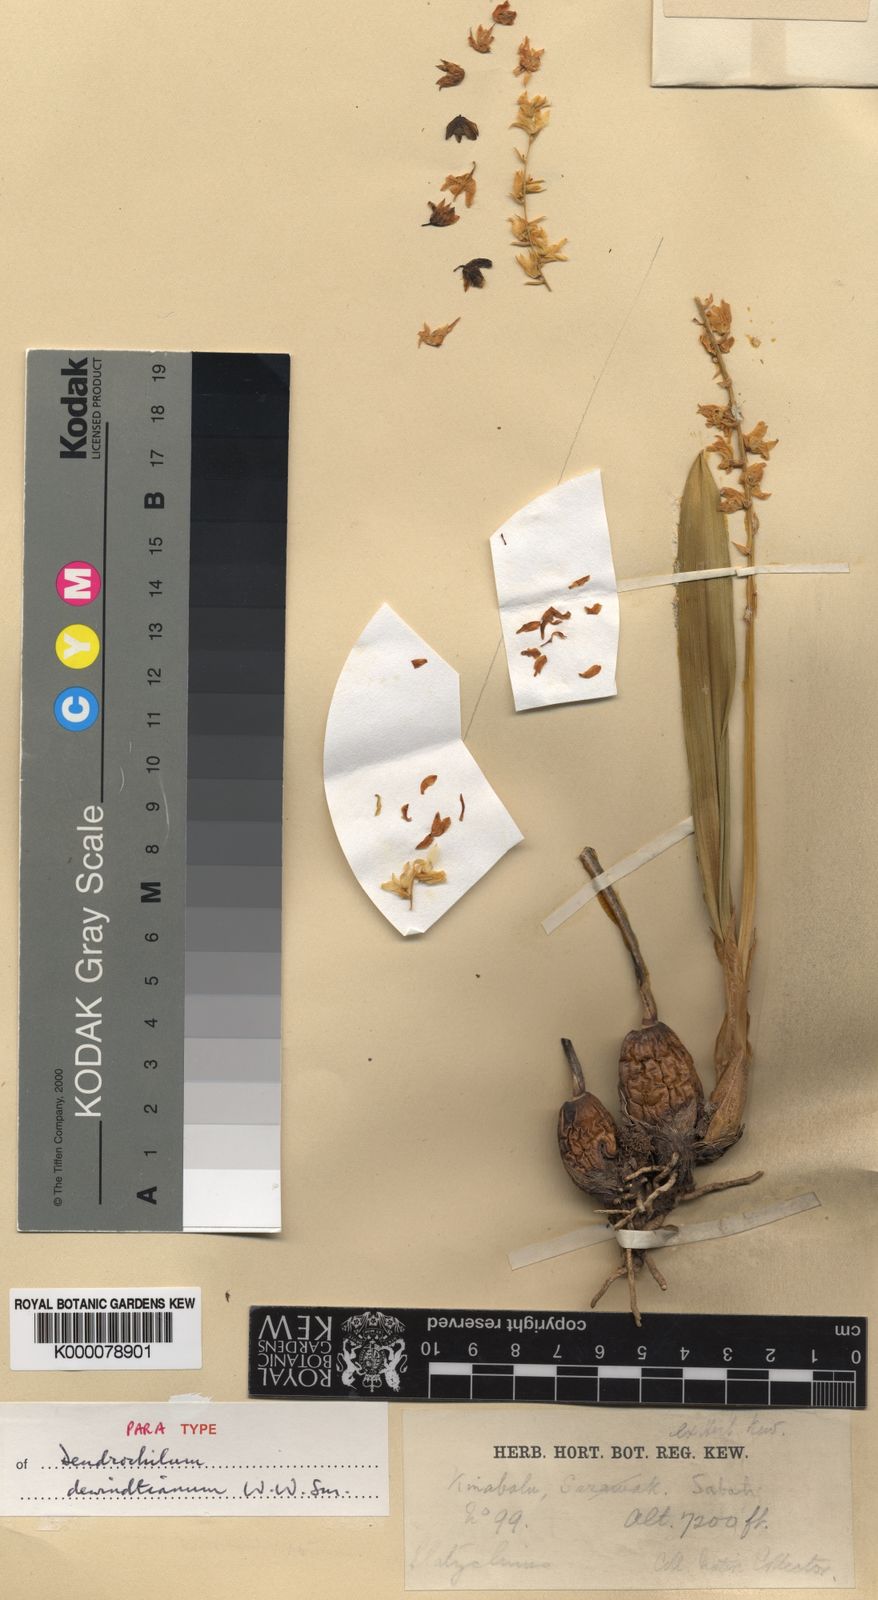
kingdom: Plantae
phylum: Tracheophyta
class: Liliopsida
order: Asparagales
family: Orchidaceae
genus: Coelogyne
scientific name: Coelogyne dewindtiana
